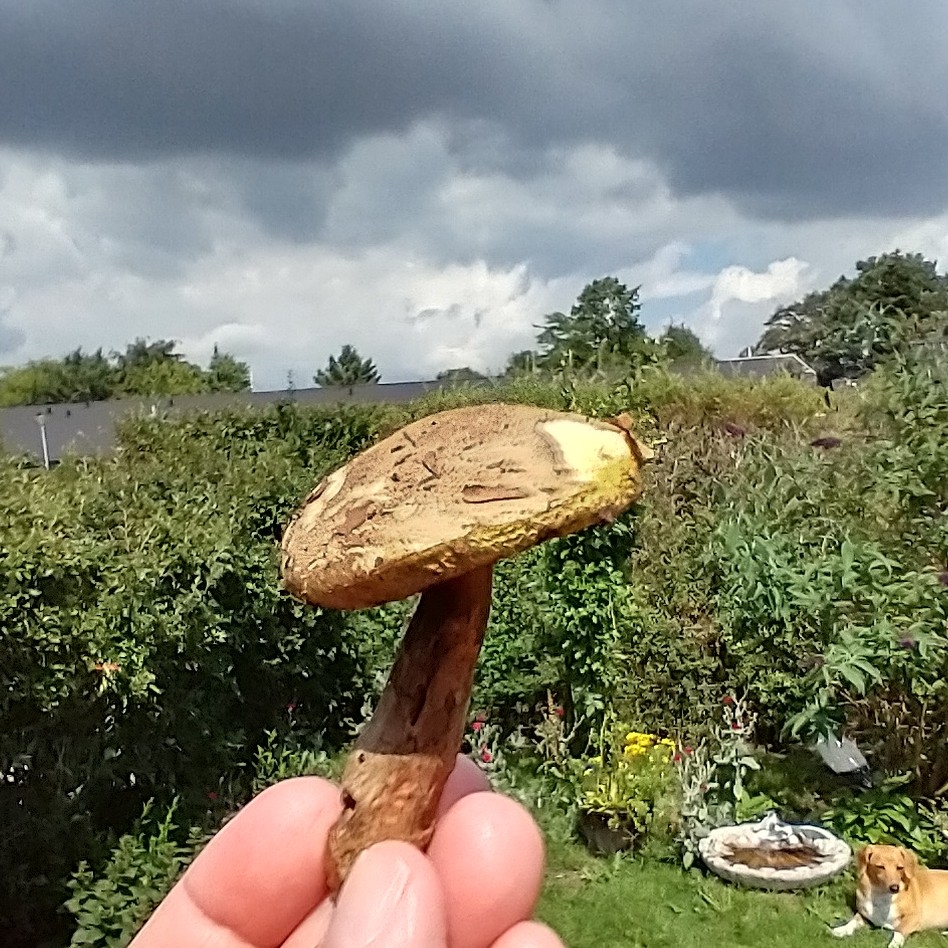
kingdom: Fungi
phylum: Basidiomycota
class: Agaricomycetes
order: Boletales
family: Boletaceae
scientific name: Boletaceae
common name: rørhatfamilien
